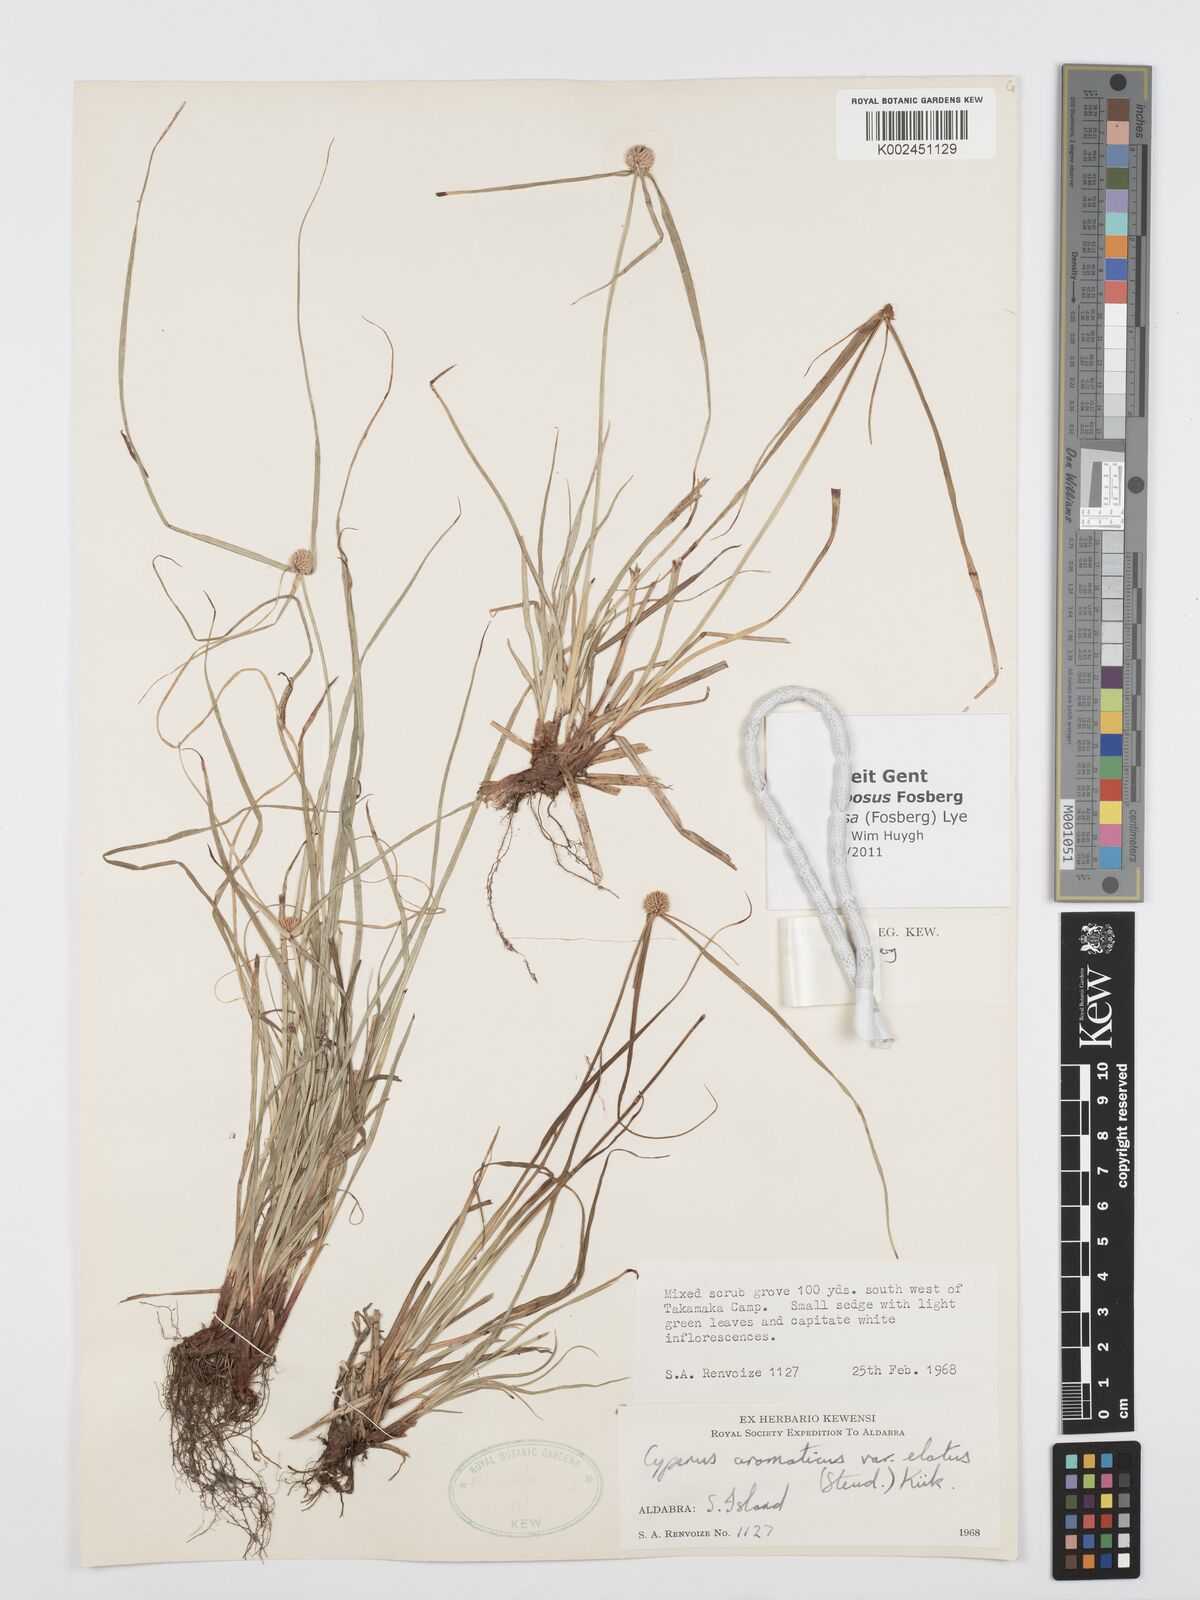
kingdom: Plantae
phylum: Tracheophyta
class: Liliopsida
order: Poales
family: Cyperaceae
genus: Cyperus
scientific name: Cyperus bigibbosa
